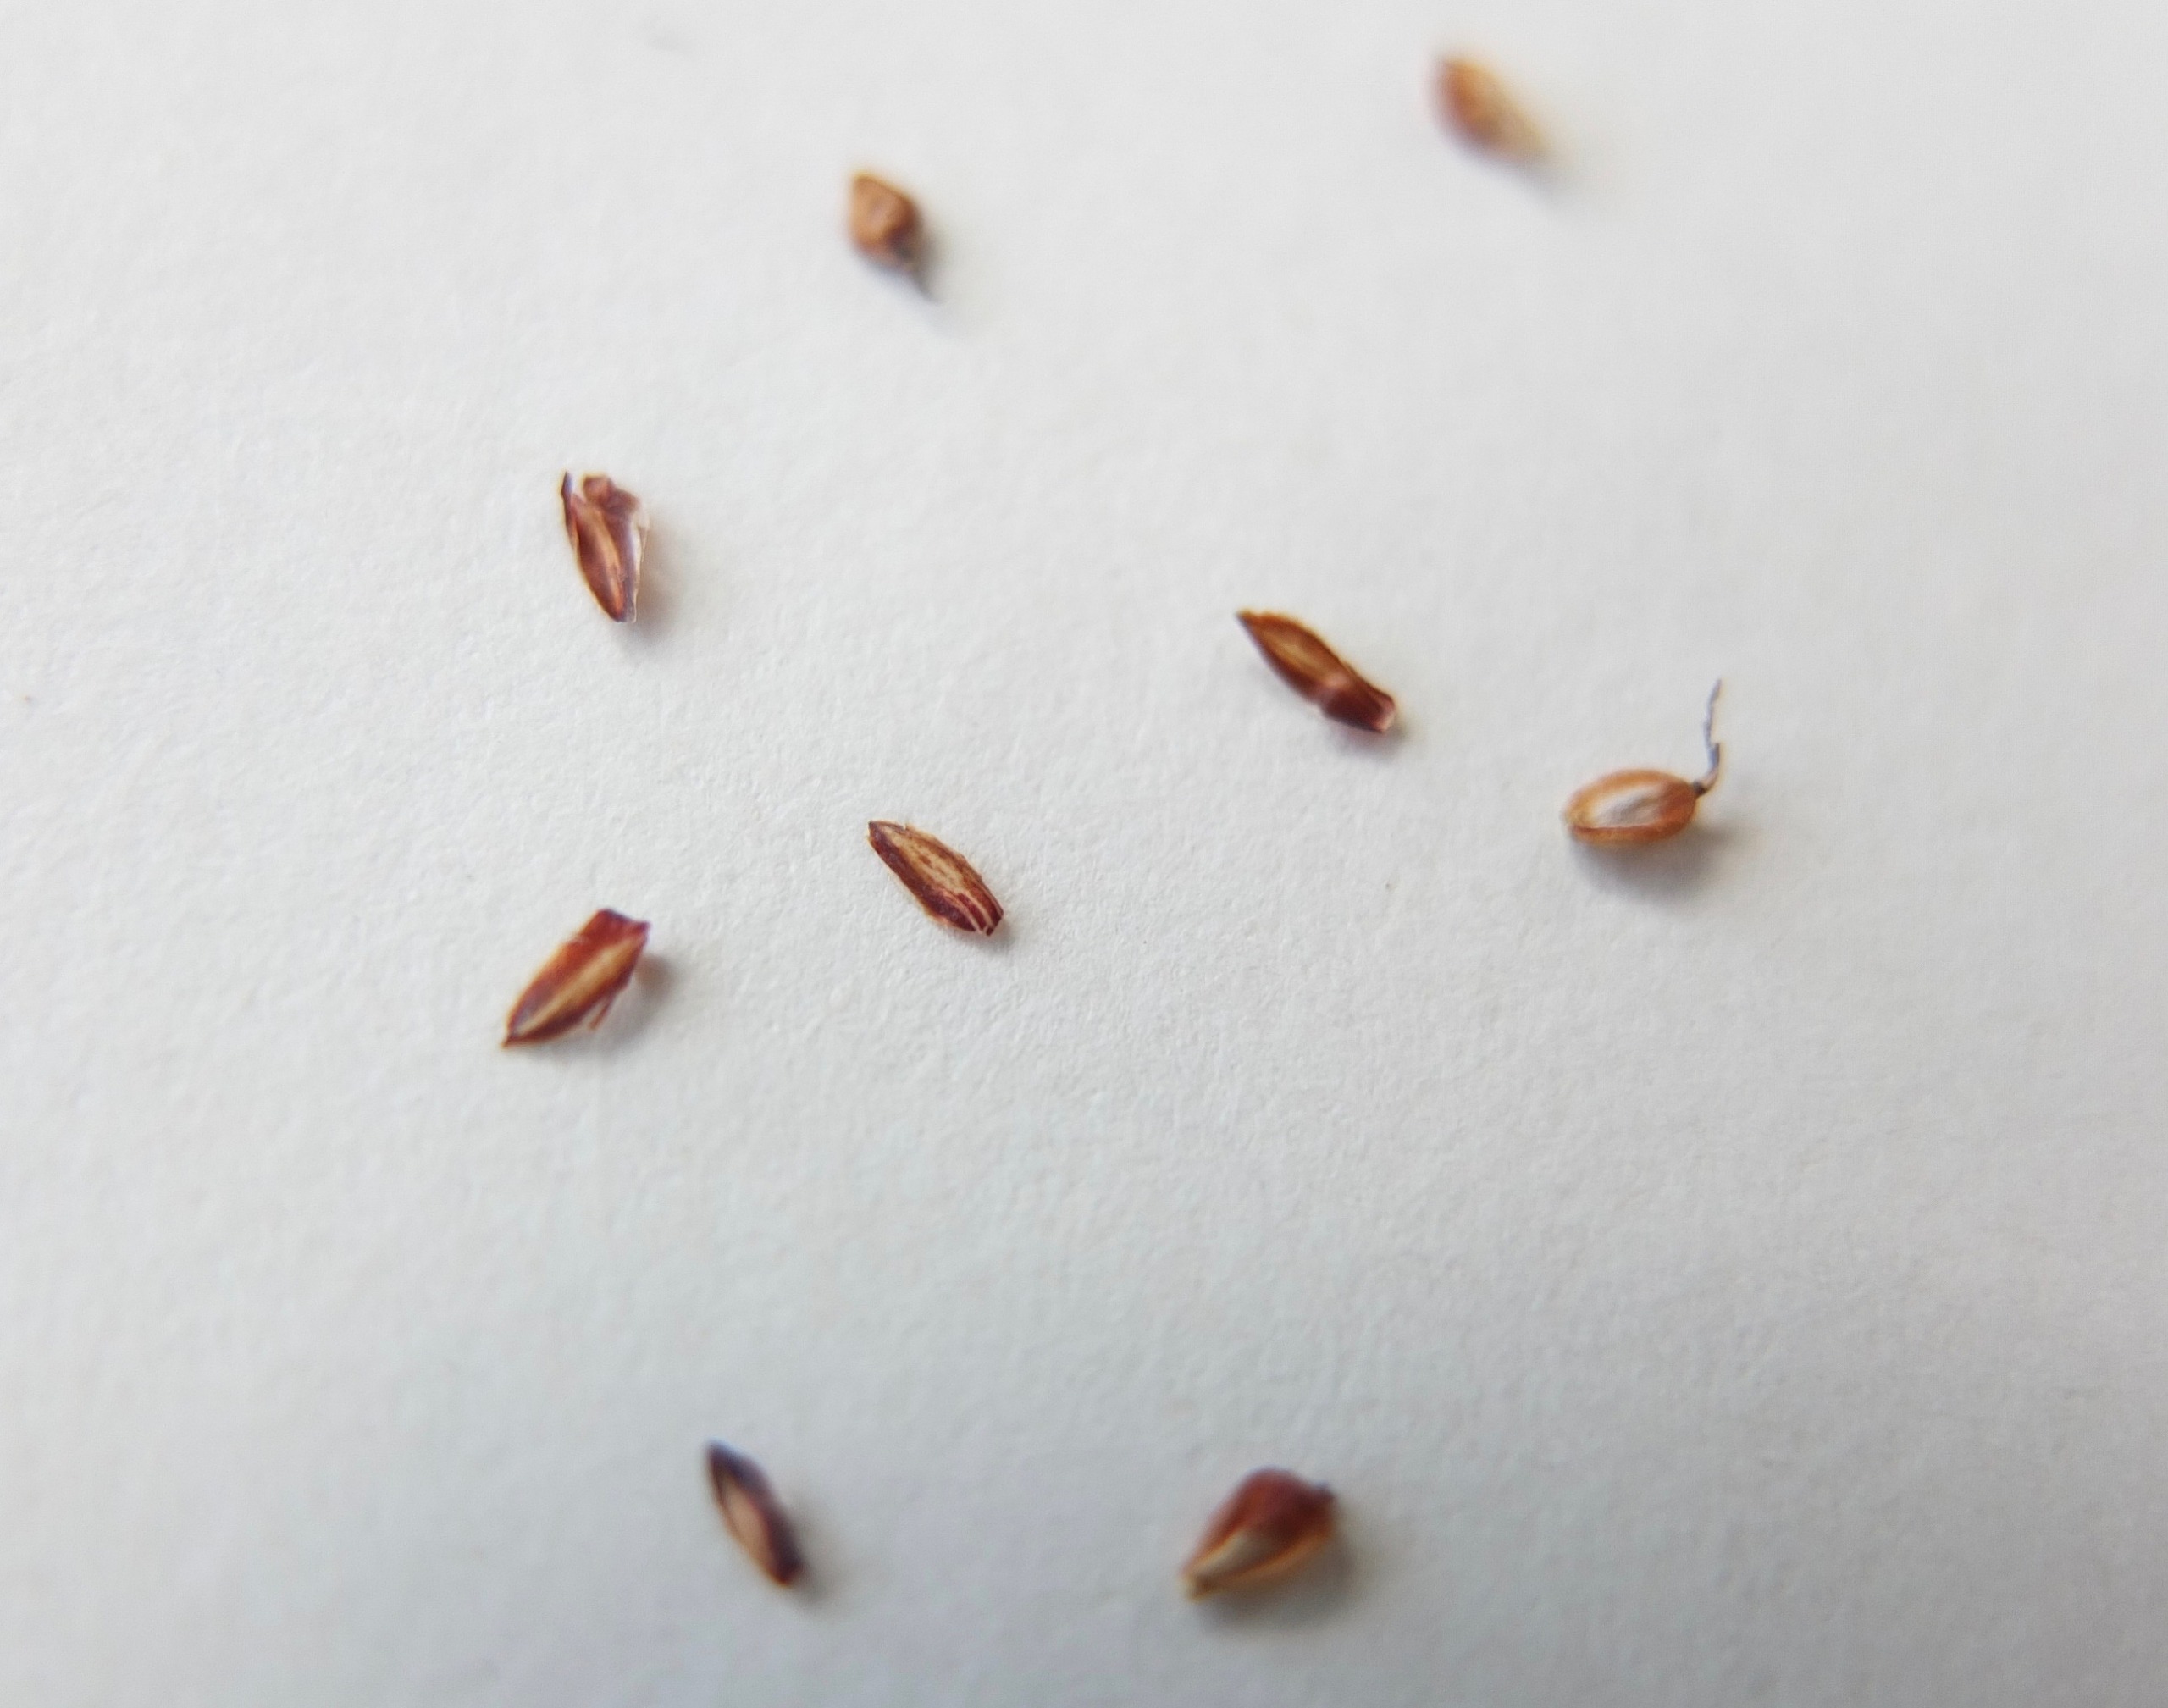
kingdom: Plantae
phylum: Tracheophyta
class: Liliopsida
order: Poales
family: Cyperaceae
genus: Carex
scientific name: Carex nigra
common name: Almindelig star
